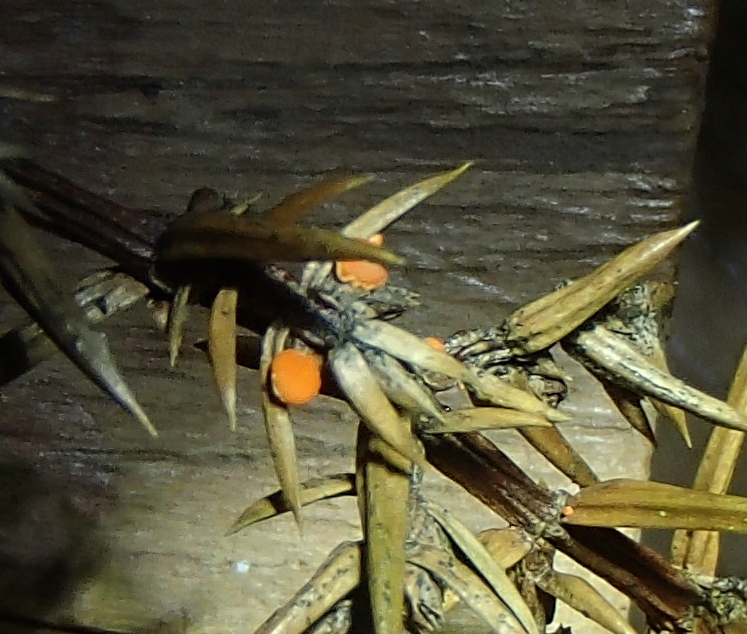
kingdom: Fungi
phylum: Ascomycota
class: Pezizomycetes
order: Pezizales
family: Sarcoscyphaceae
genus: Pithya
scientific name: Pithya cupressina
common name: lille dukatbæger
